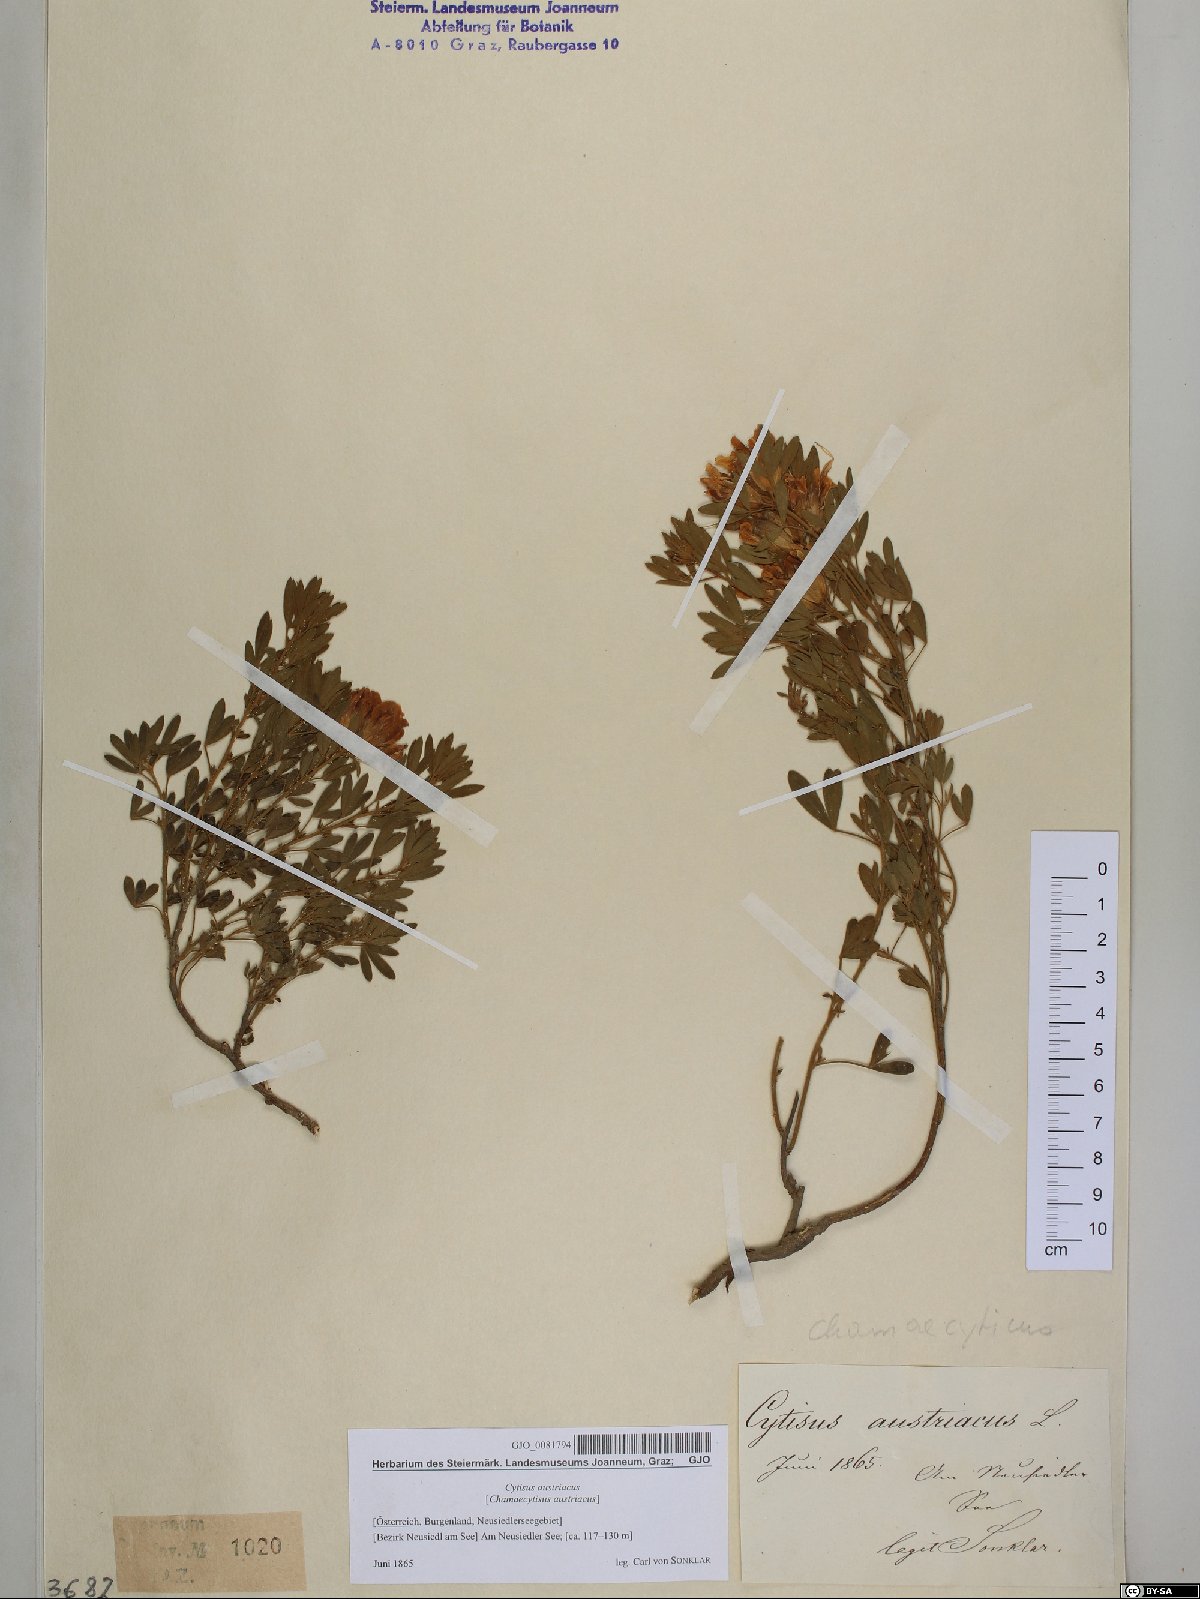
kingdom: Plantae
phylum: Tracheophyta
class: Magnoliopsida
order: Fabales
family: Fabaceae
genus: Chamaecytisus
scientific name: Chamaecytisus austriacus
